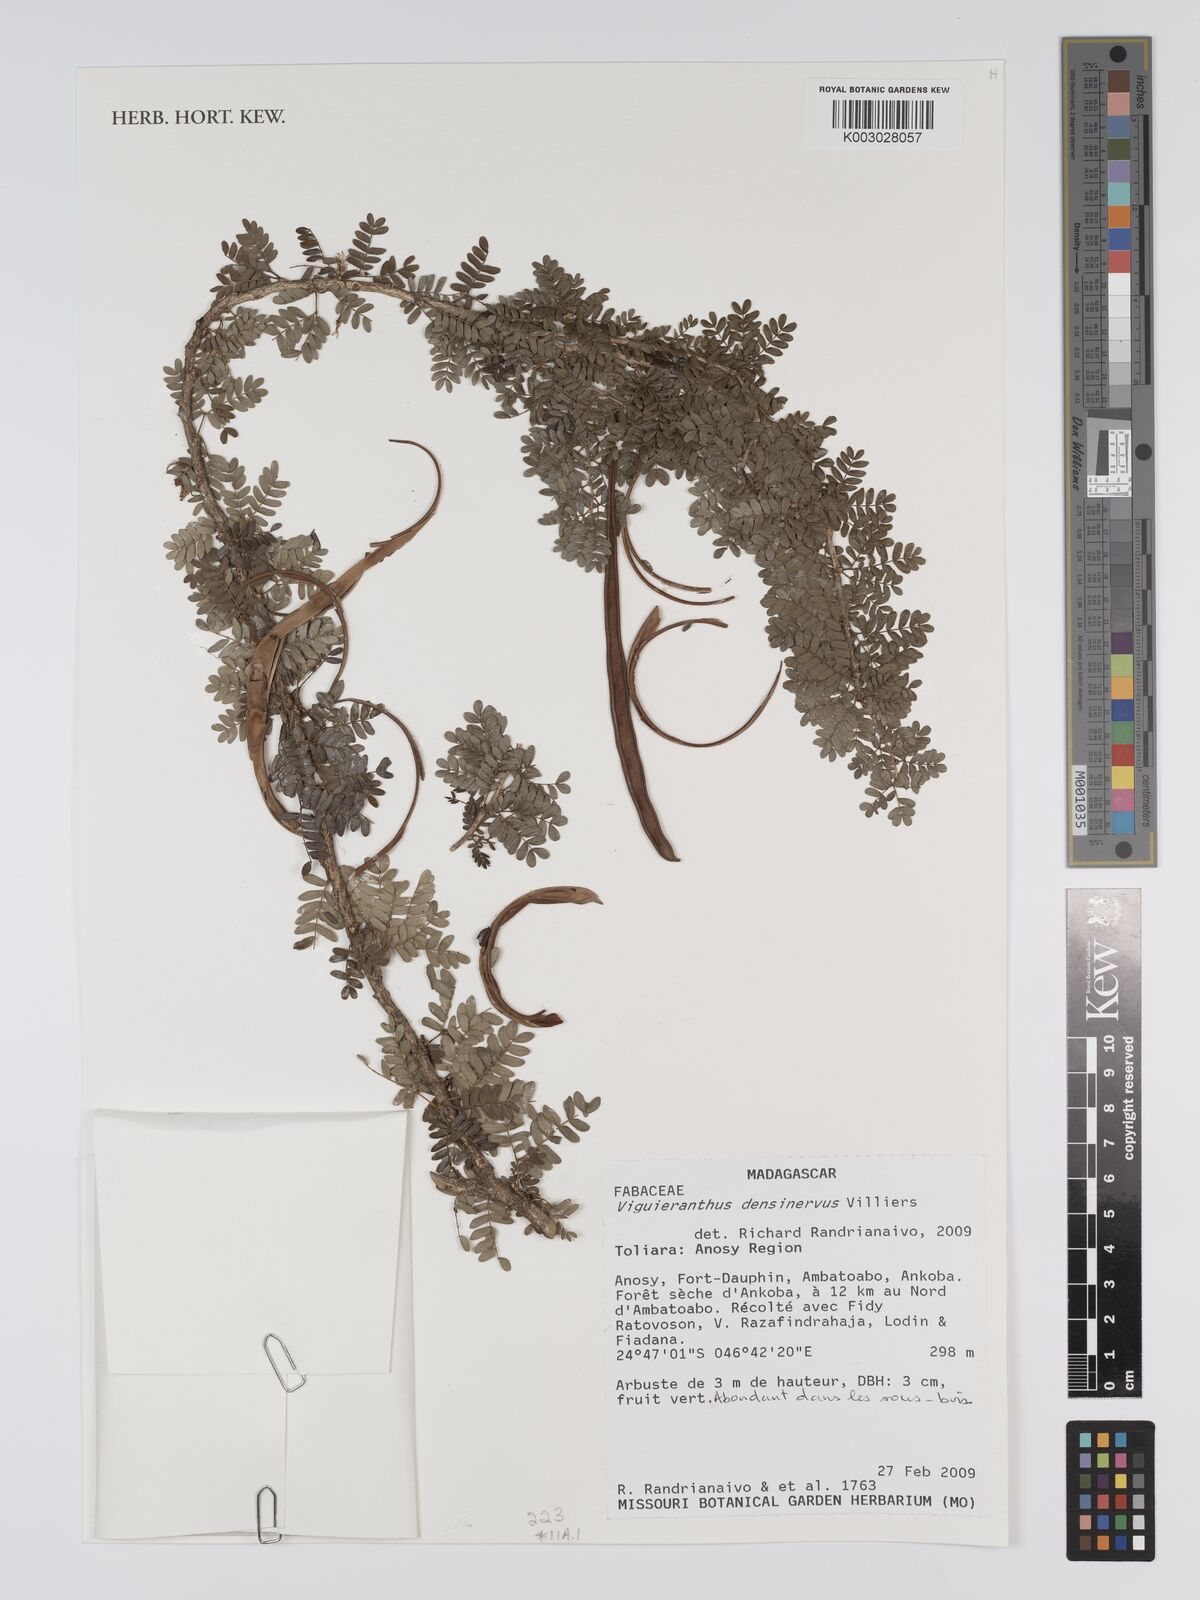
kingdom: Plantae
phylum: Tracheophyta
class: Magnoliopsida
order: Fabales
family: Fabaceae
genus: Viguieranthus
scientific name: Viguieranthus densinervus
